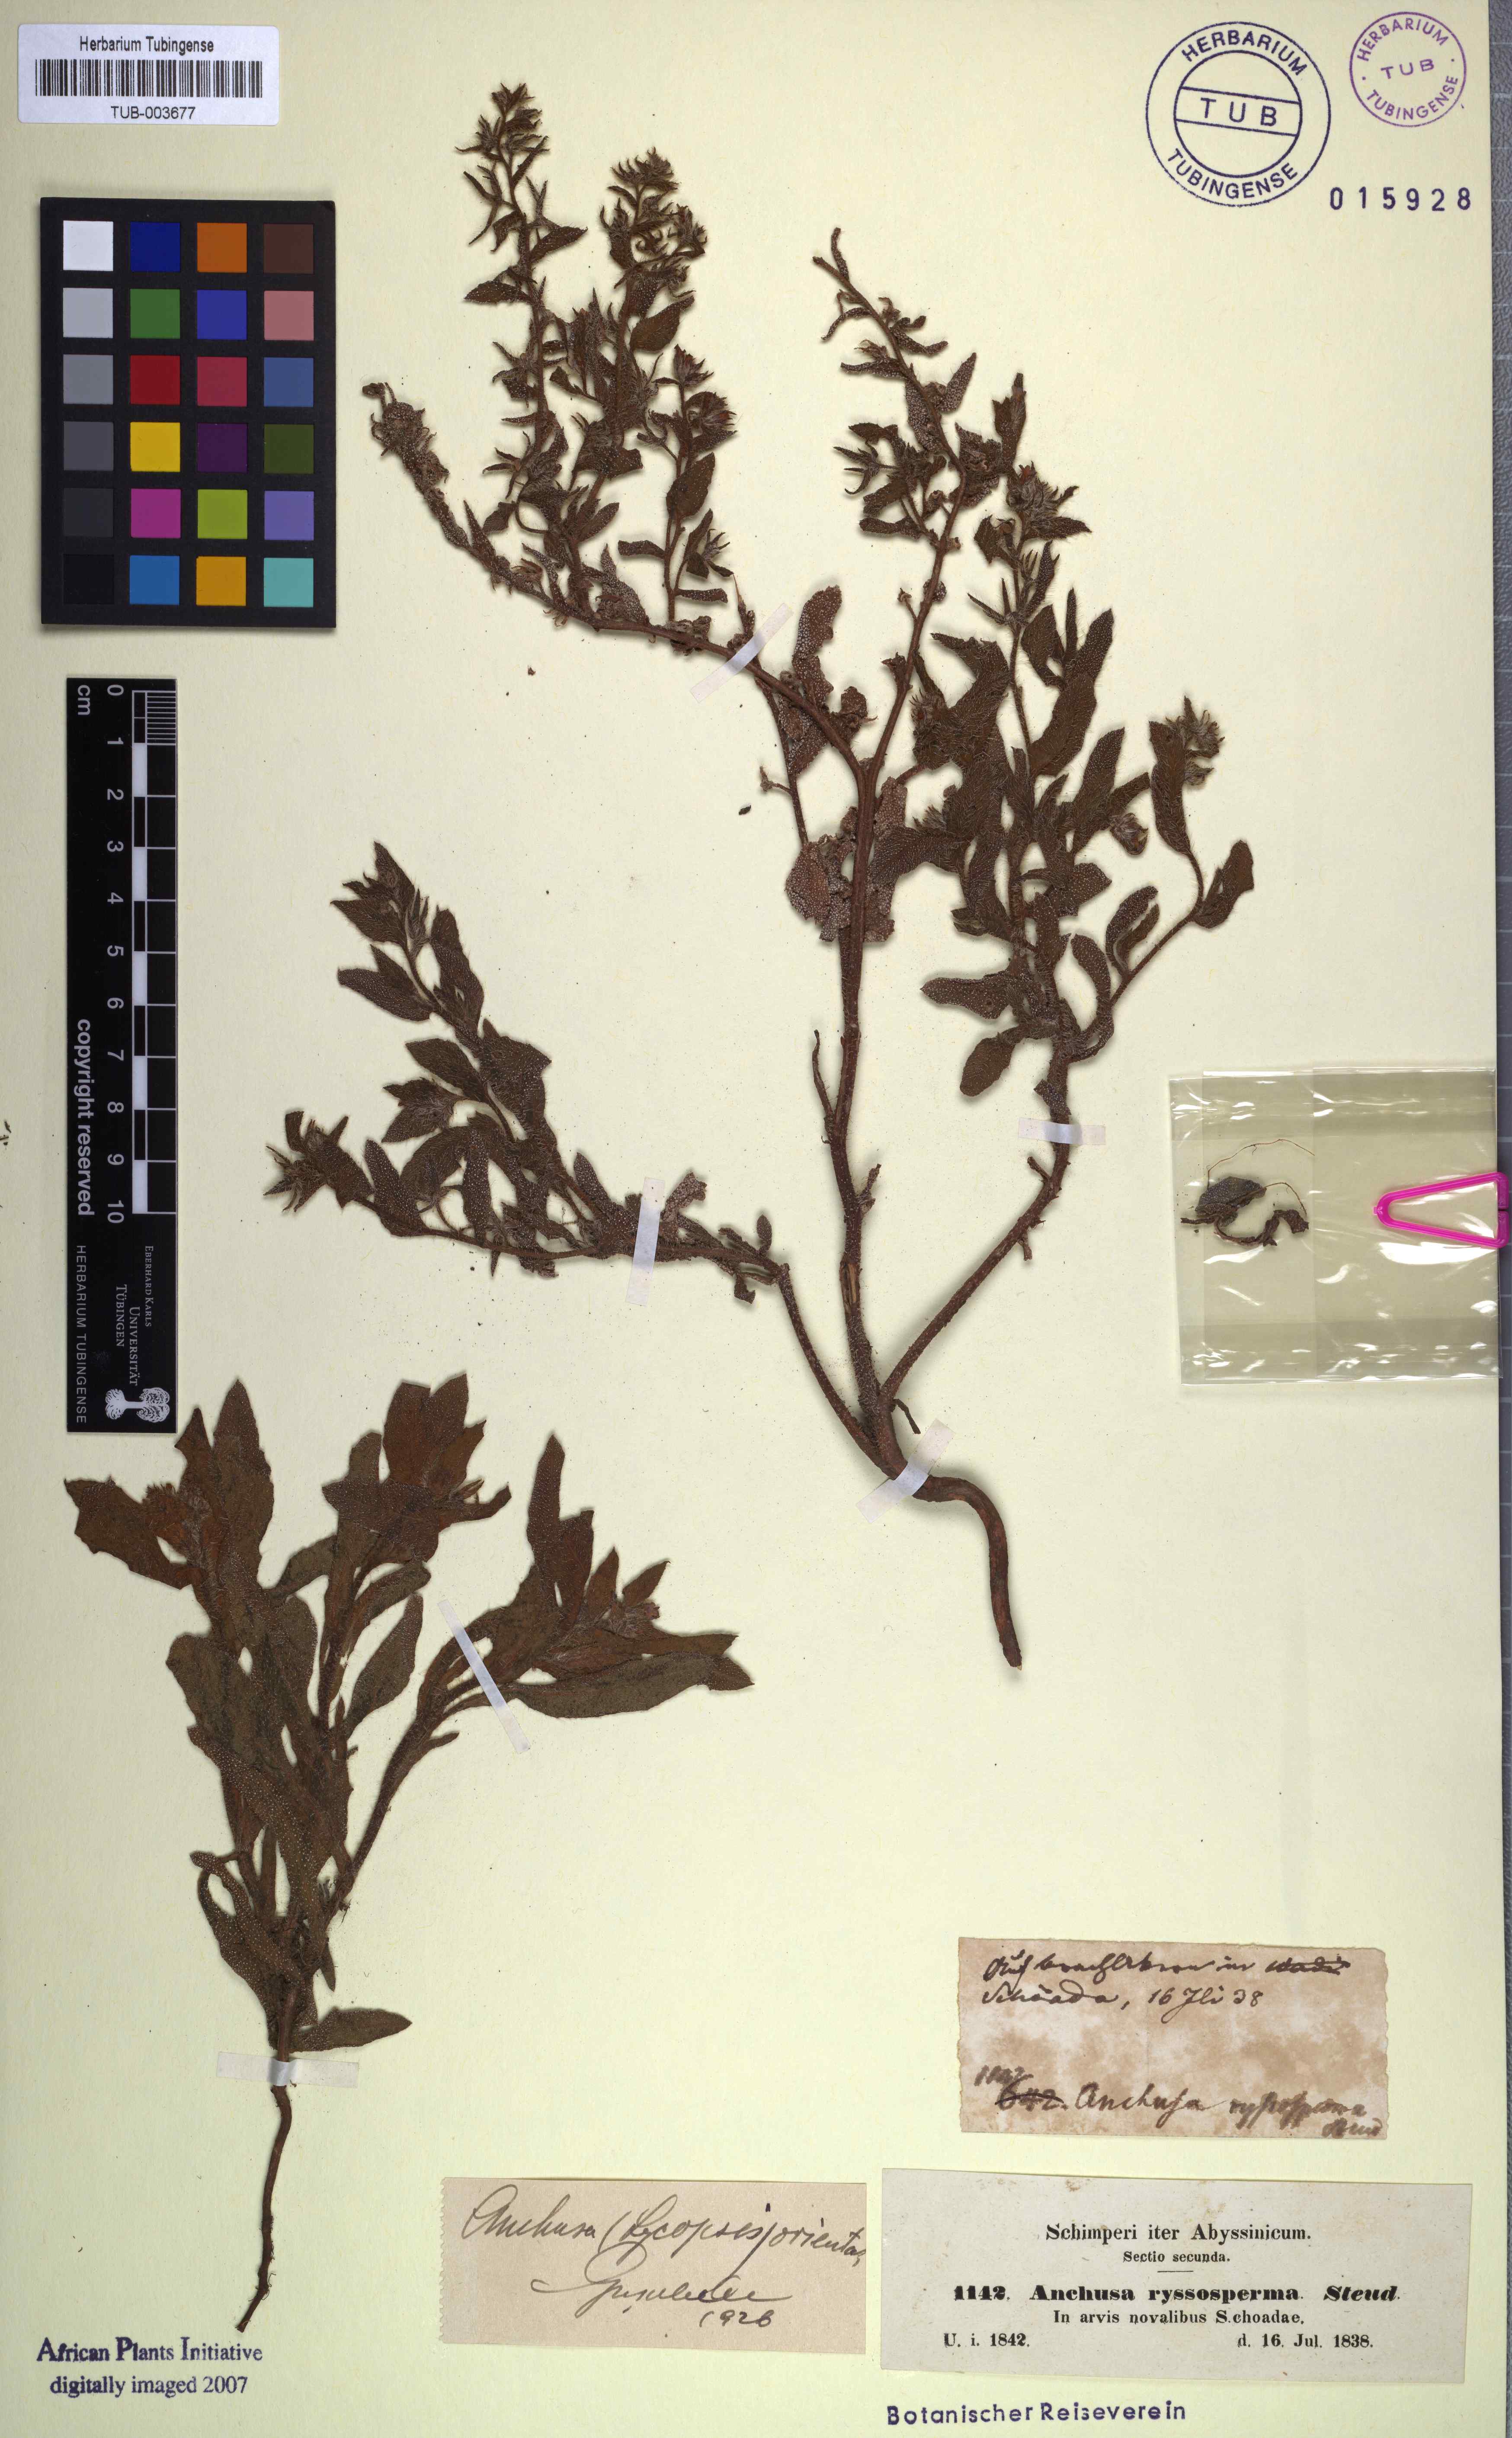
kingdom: Plantae
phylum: Tracheophyta
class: Magnoliopsida
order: Boraginales
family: Boraginaceae
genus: Lycopsis
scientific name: Lycopsis arvensis
